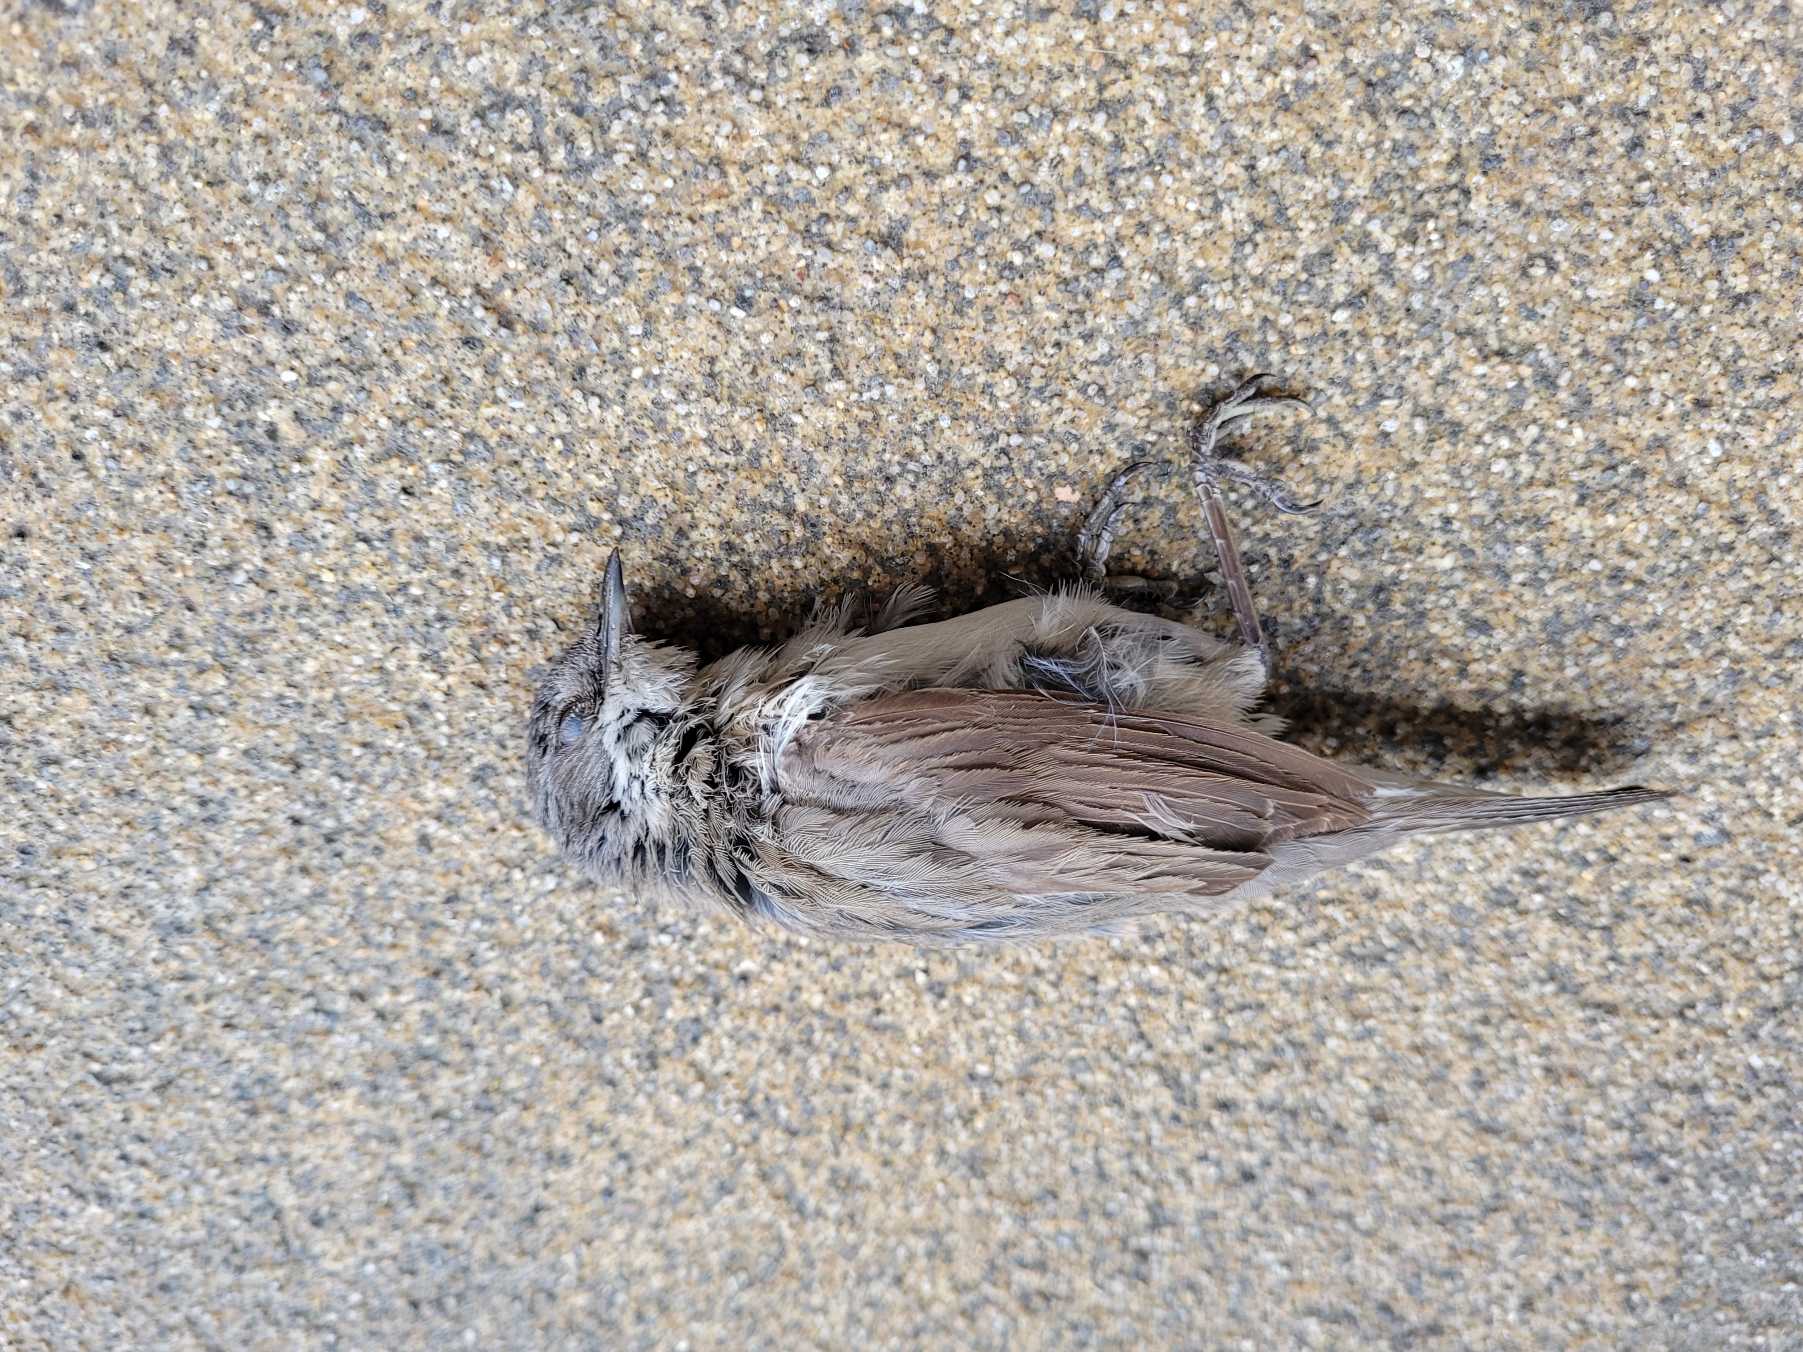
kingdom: Animalia
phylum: Chordata
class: Aves
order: Passeriformes
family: Sylviidae
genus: Sylvia
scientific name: Sylvia curruca
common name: Gærdesanger
